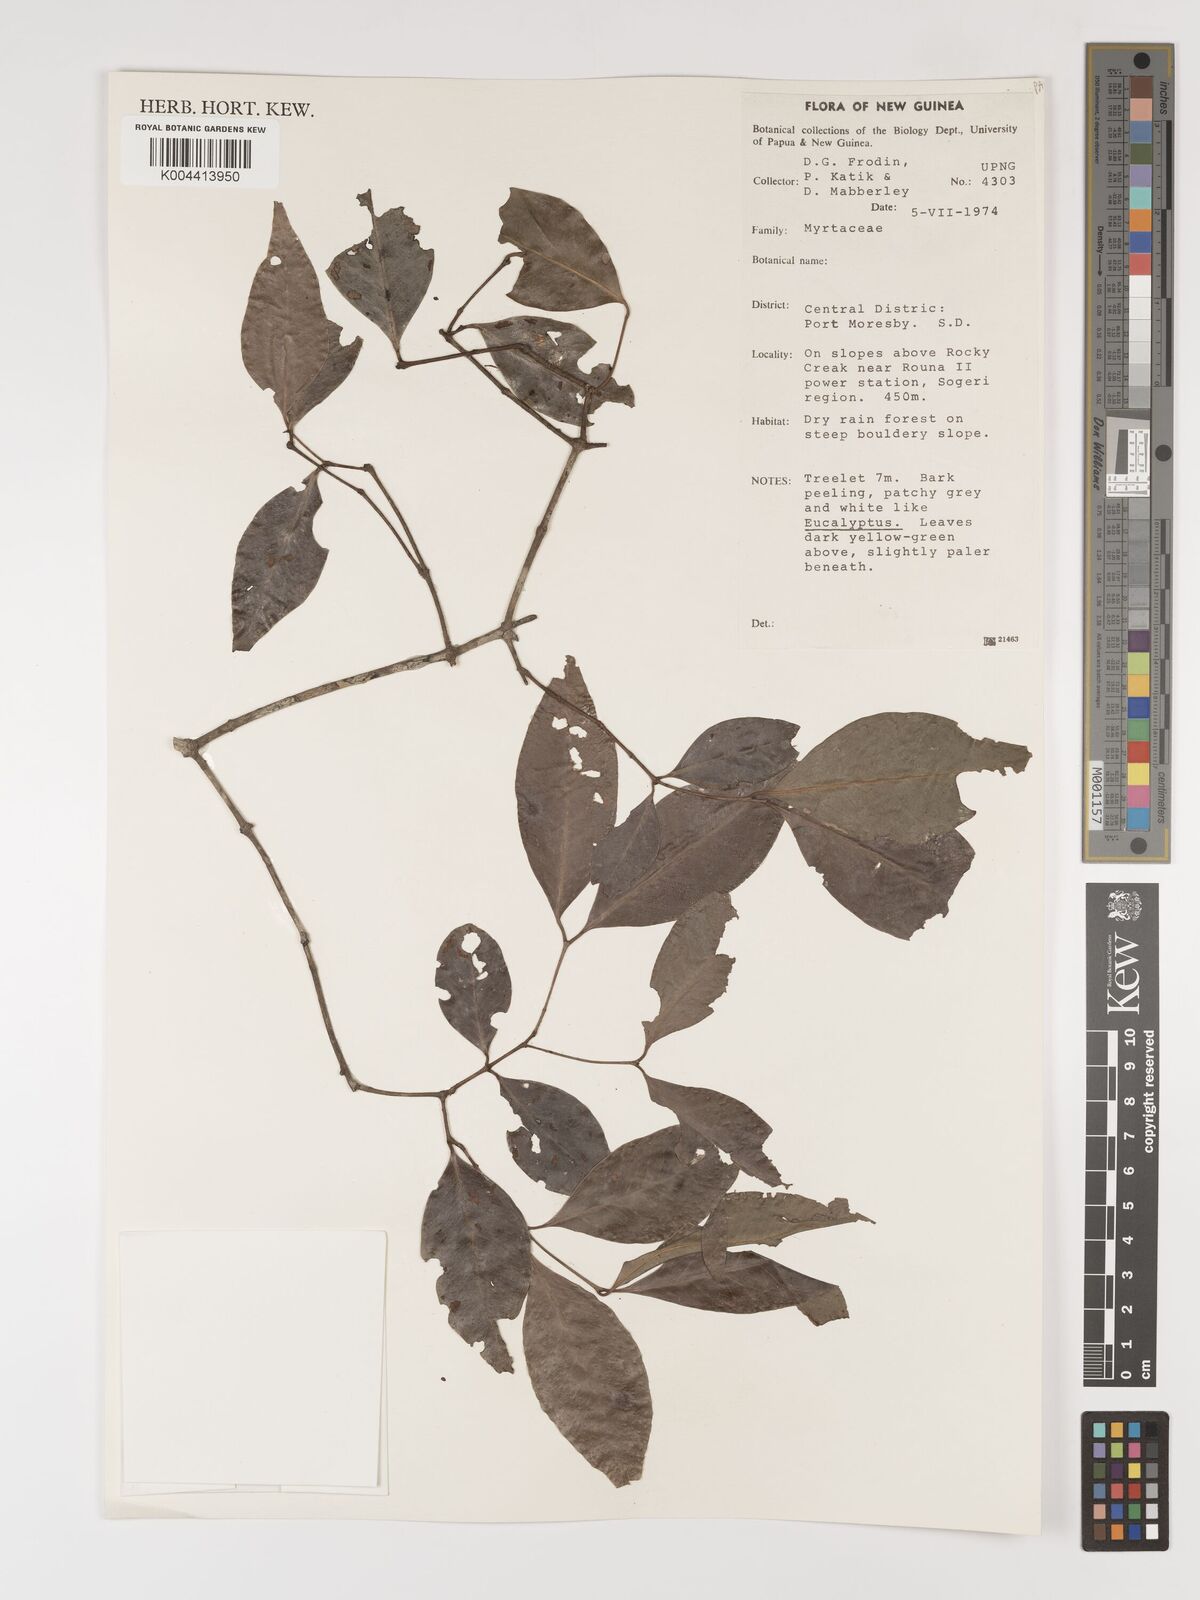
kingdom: Plantae
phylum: Tracheophyta
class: Magnoliopsida
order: Myrtales
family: Myrtaceae
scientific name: Myrtaceae
